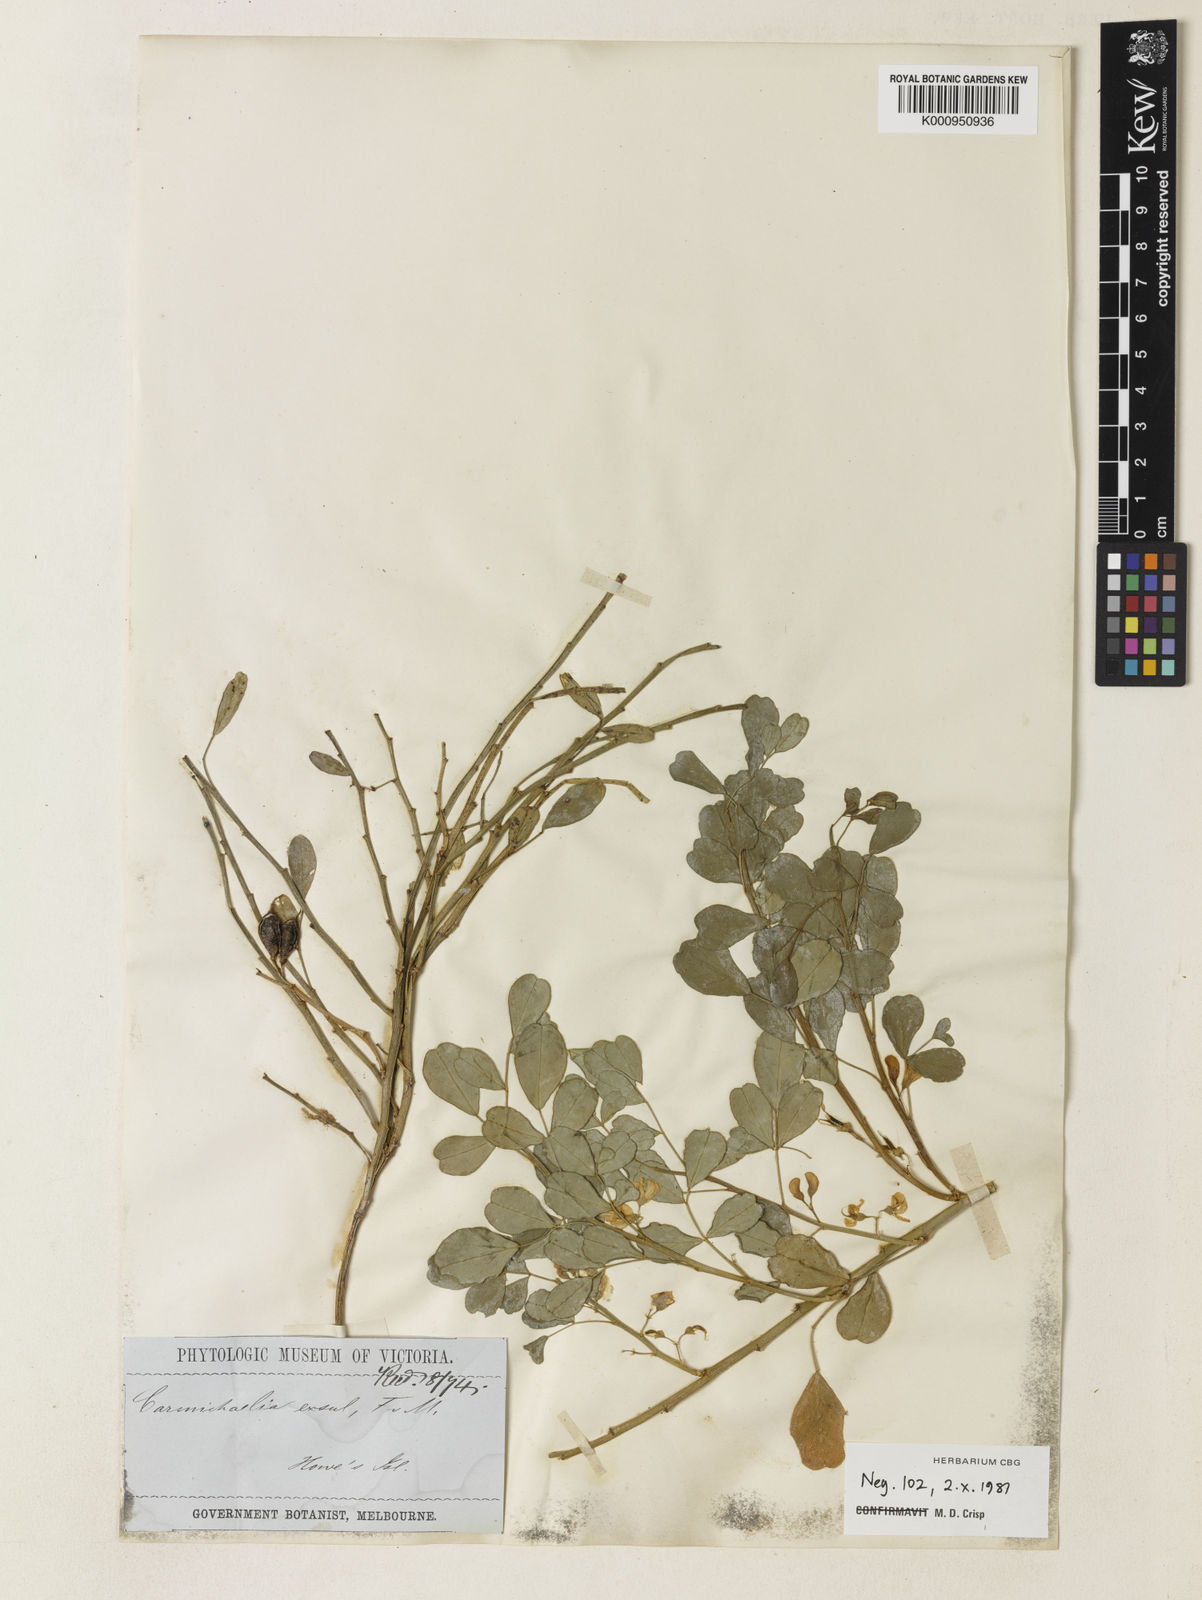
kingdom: Plantae
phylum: Tracheophyta
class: Magnoliopsida
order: Fabales
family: Fabaceae
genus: Carmichaelia
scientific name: Carmichaelia exsul
